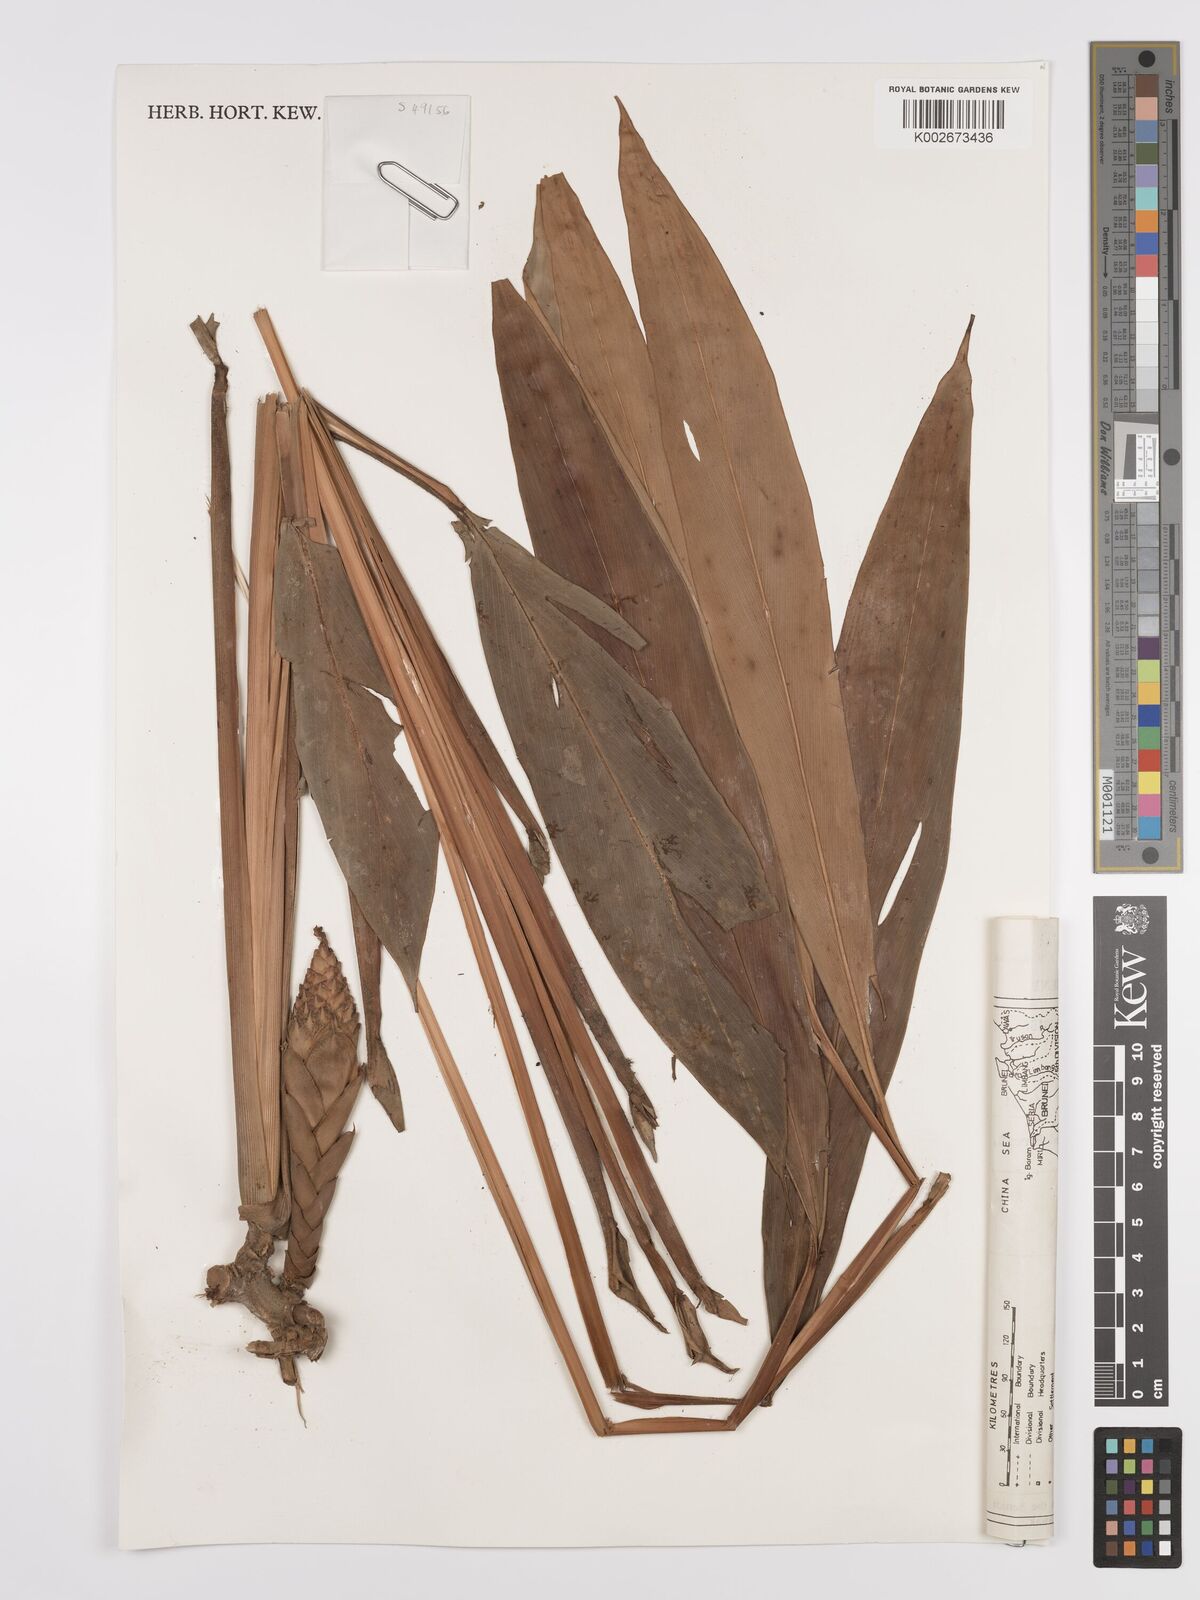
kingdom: Plantae
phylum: Tracheophyta
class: Liliopsida
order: Zingiberales
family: Zingiberaceae
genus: Epiamomum
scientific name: Epiamomum hansenii
